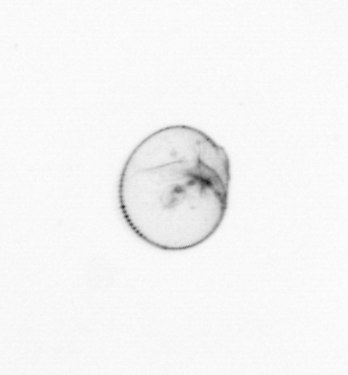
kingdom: Chromista
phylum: Myzozoa
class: Dinophyceae
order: Noctilucales
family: Noctilucaceae
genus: Noctiluca
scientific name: Noctiluca scintillans
